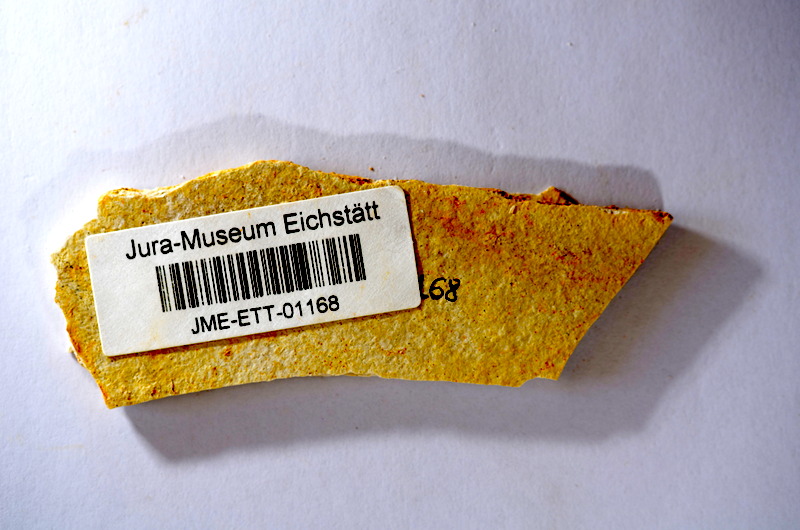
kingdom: Animalia
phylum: Chordata
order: Salmoniformes
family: Orthogonikleithridae
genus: Orthogonikleithrus
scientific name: Orthogonikleithrus hoelli
